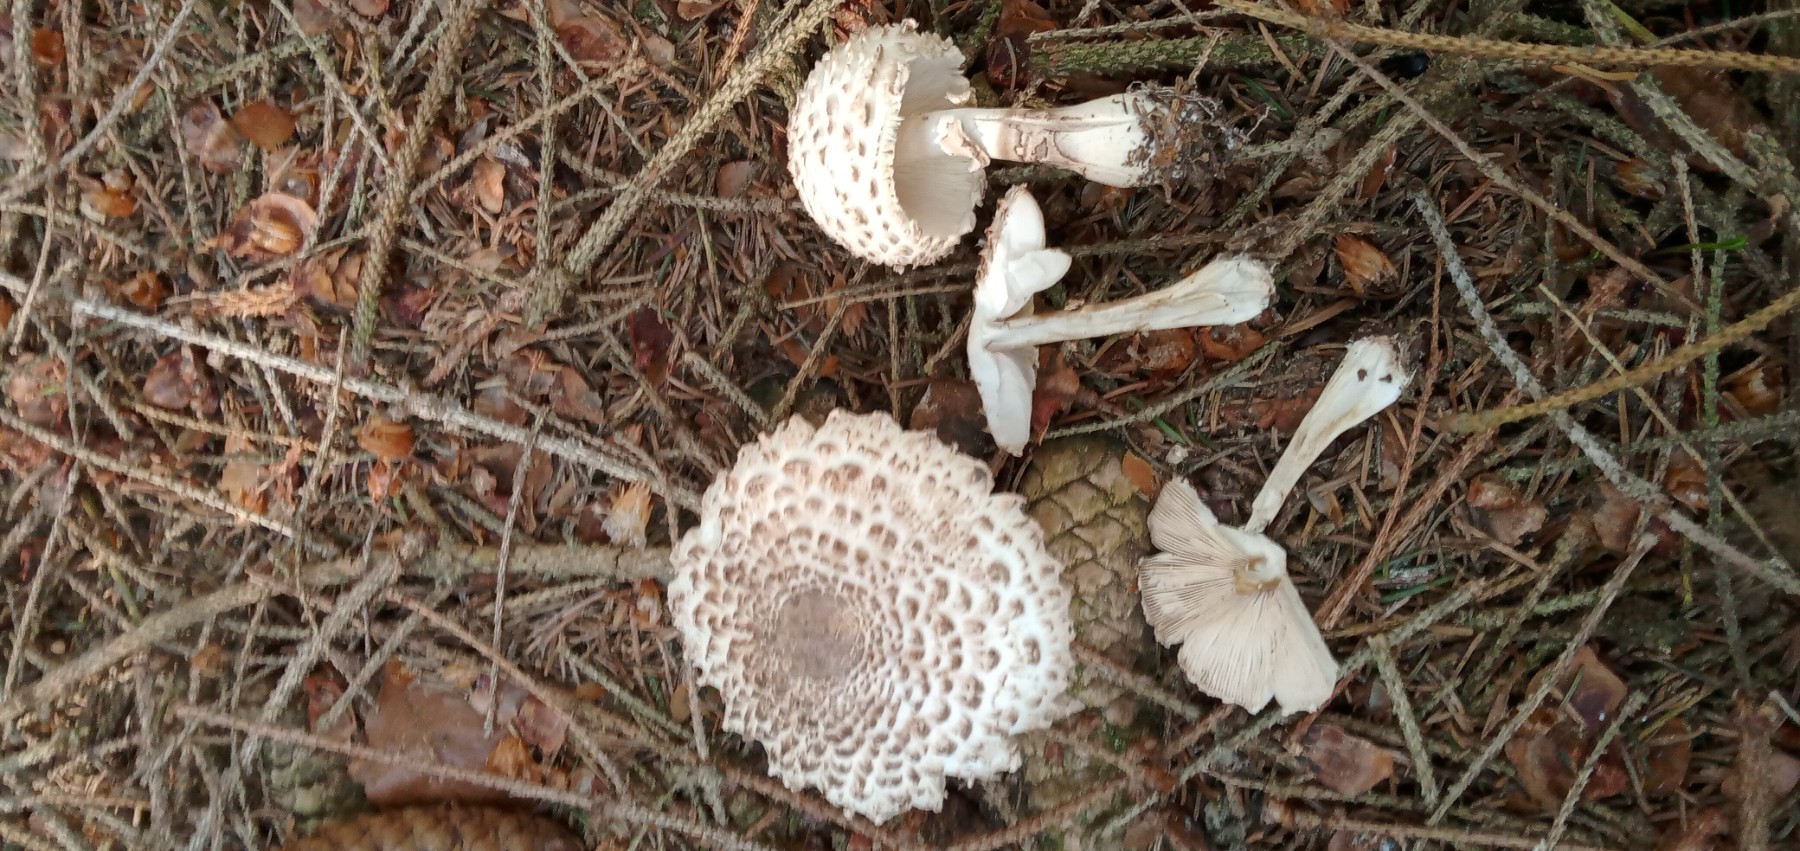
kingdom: Fungi
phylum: Basidiomycota
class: Agaricomycetes
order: Agaricales
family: Agaricaceae
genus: Leucoagaricus
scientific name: Leucoagaricus nympharum
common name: gran-silkehat
